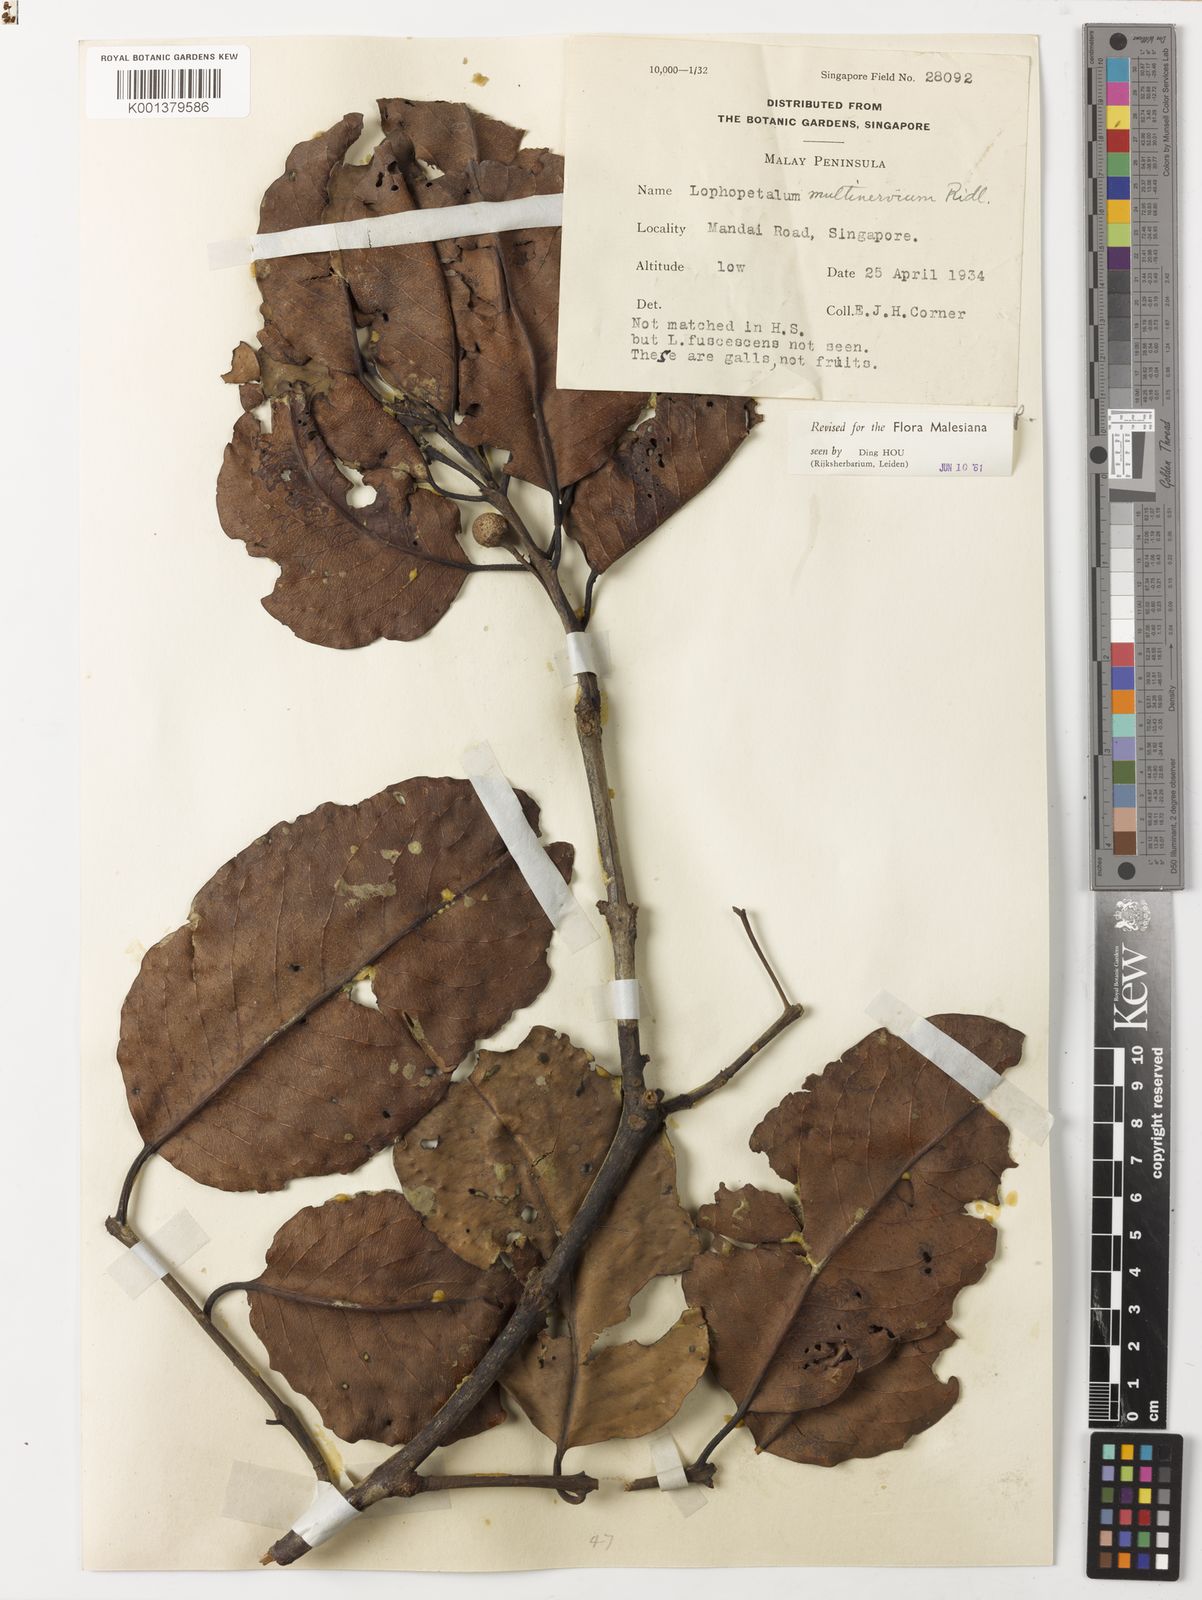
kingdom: Plantae
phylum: Tracheophyta
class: Magnoliopsida
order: Celastrales
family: Celastraceae
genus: Lophopetalum
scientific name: Lophopetalum multinervium
